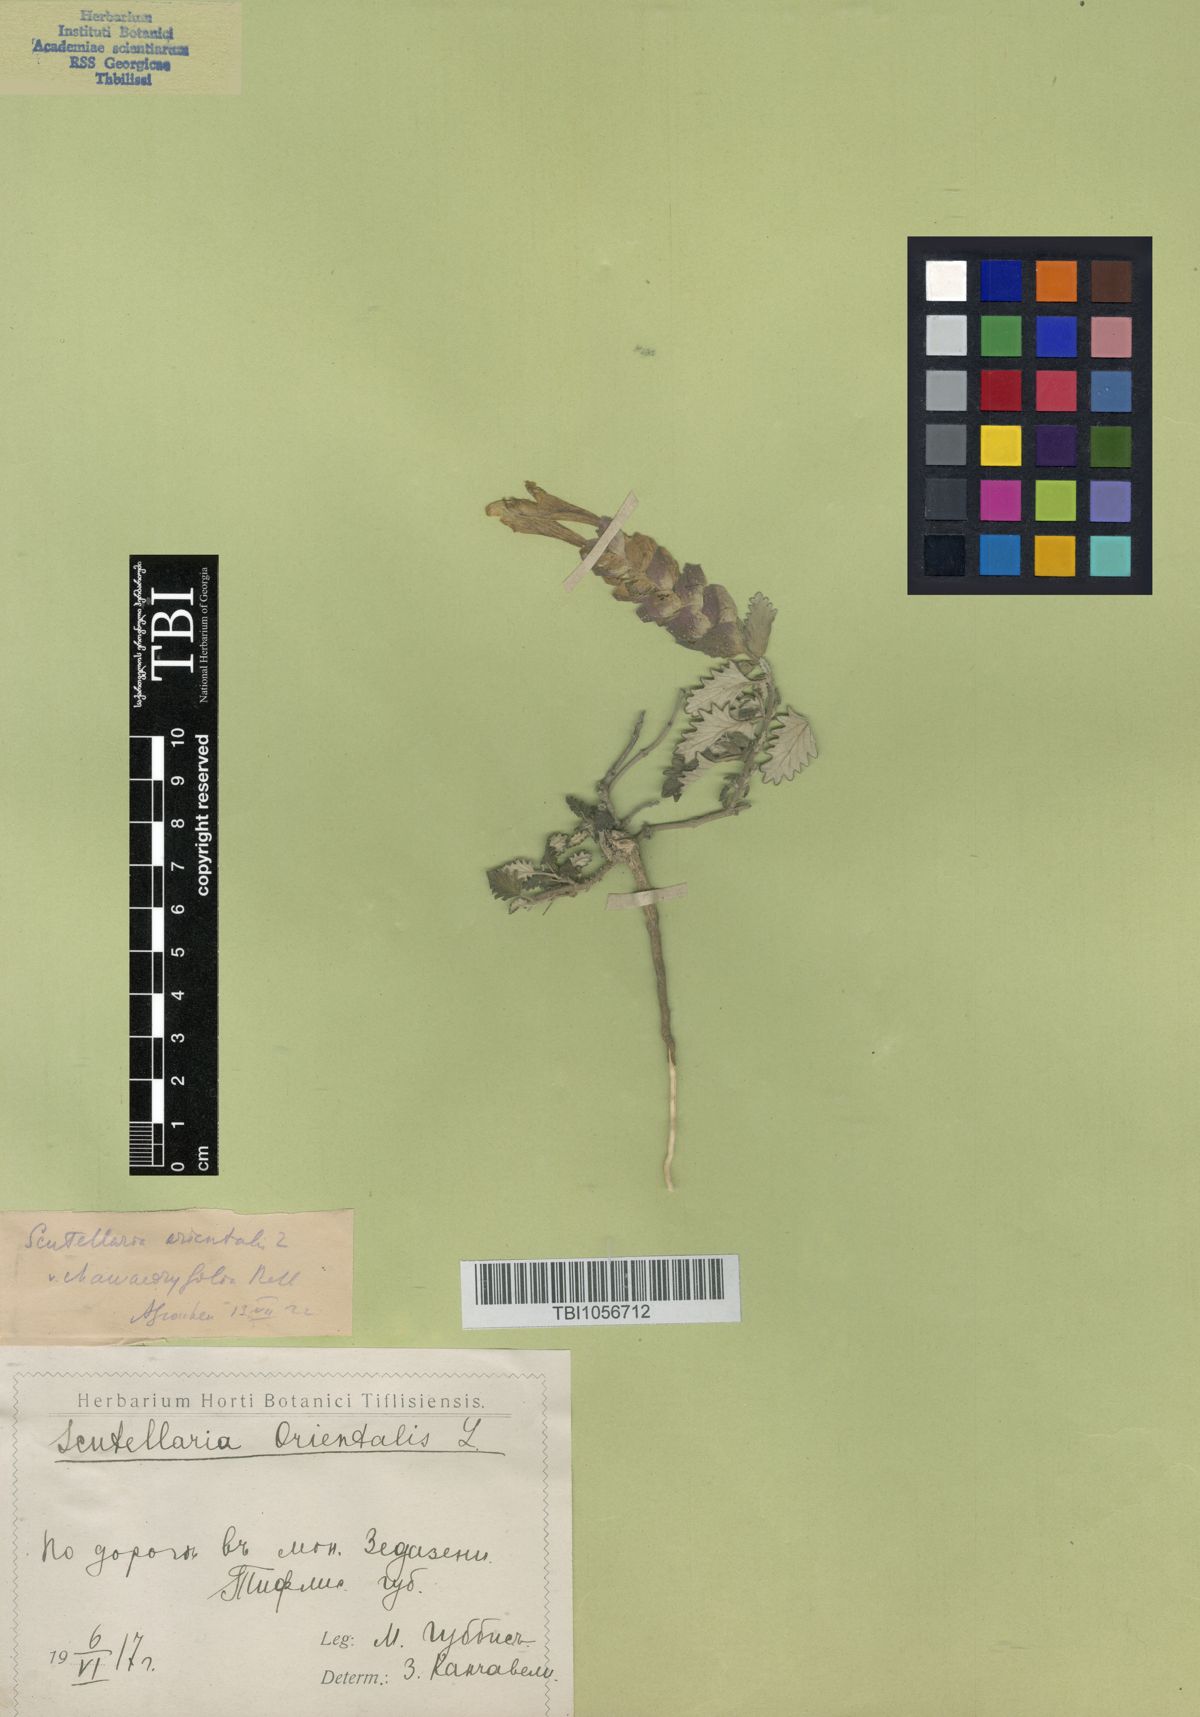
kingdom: Plantae
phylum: Tracheophyta
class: Magnoliopsida
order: Lamiales
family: Lamiaceae
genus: Scutellaria
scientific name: Scutellaria orientalis
